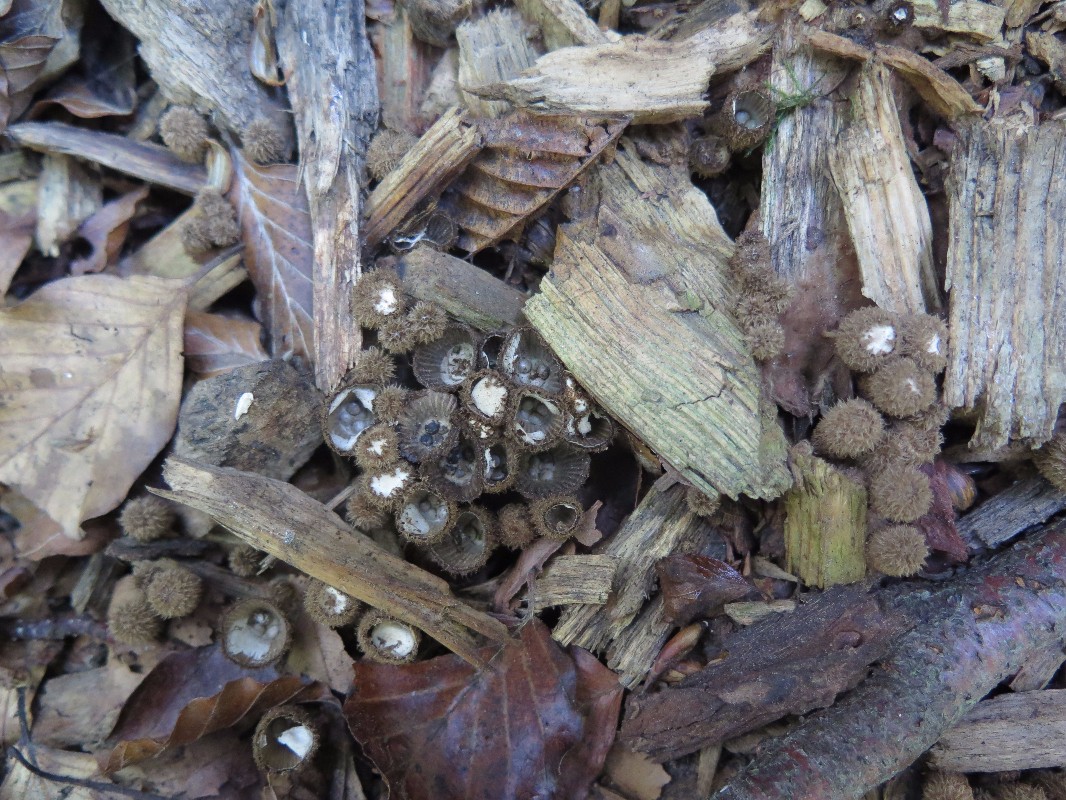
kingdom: Fungi
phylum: Basidiomycota
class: Agaricomycetes
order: Agaricales
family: Agaricaceae
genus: Cyathus
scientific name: Cyathus striatus
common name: stribet redesvamp
